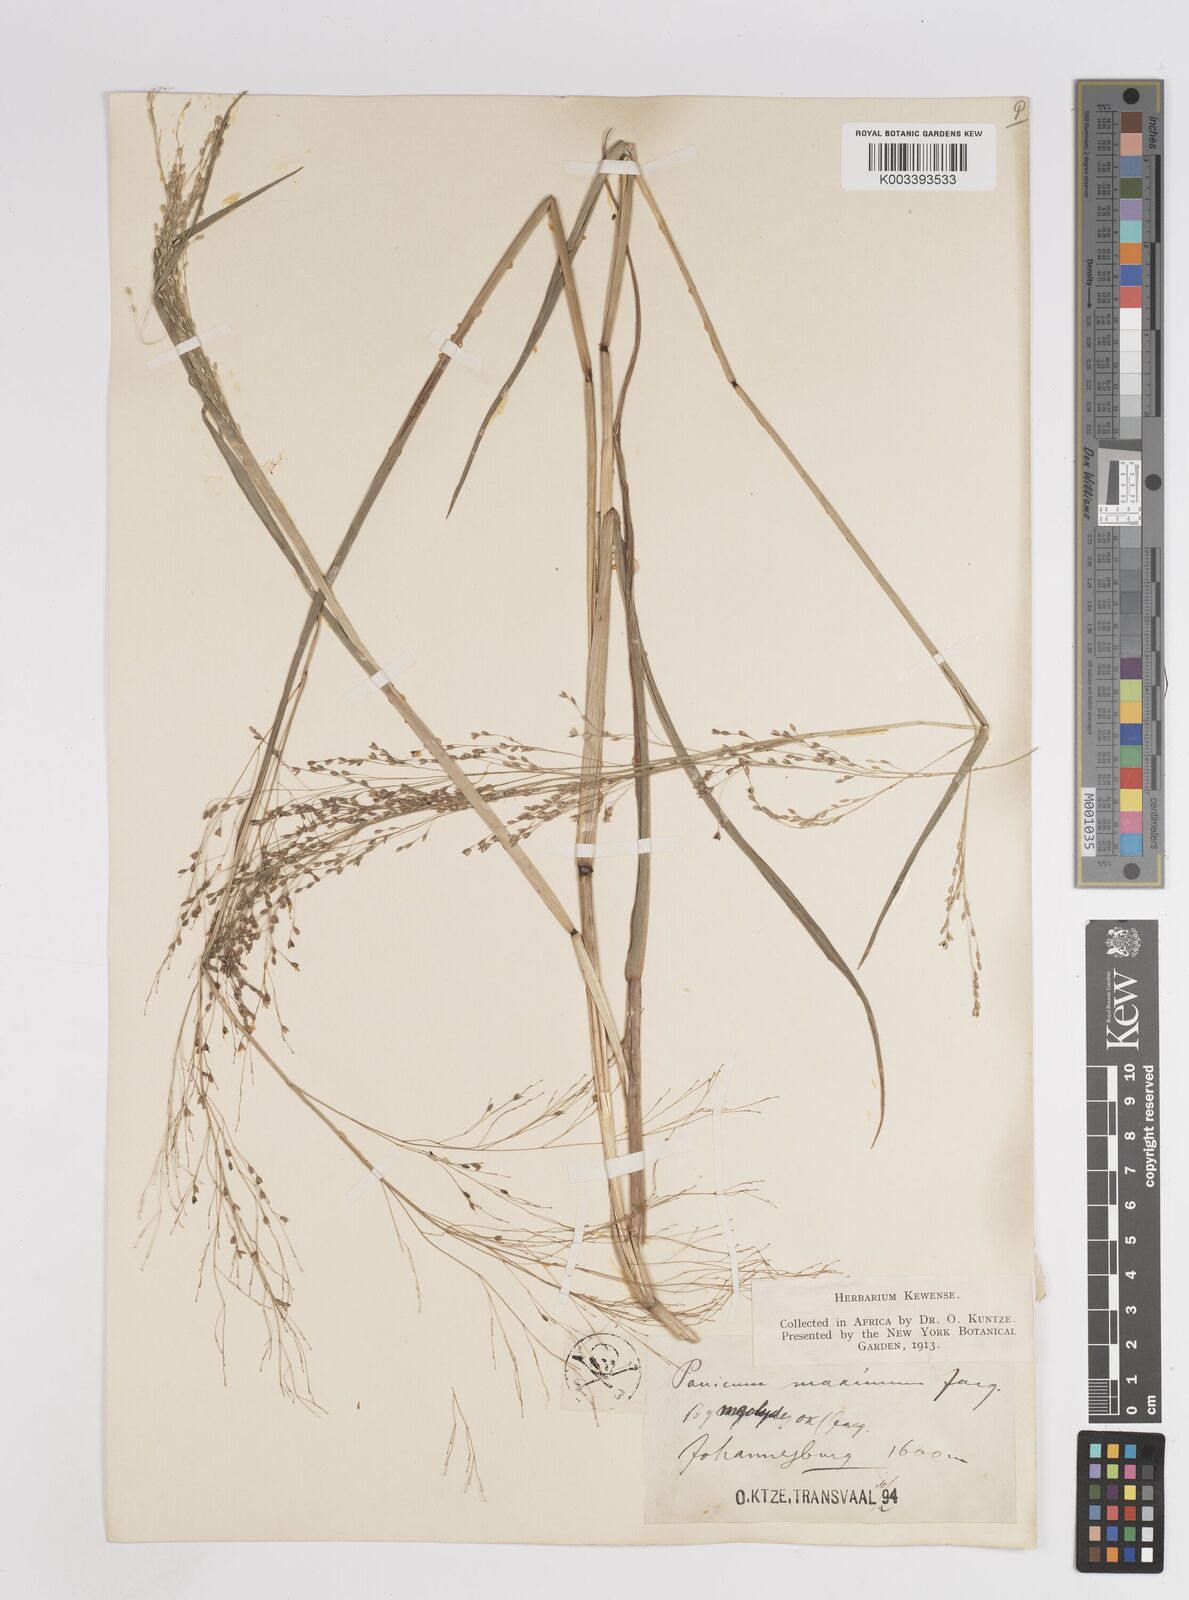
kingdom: Plantae
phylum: Tracheophyta
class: Liliopsida
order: Poales
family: Poaceae
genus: Megathyrsus
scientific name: Megathyrsus maximus
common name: Guineagrass
